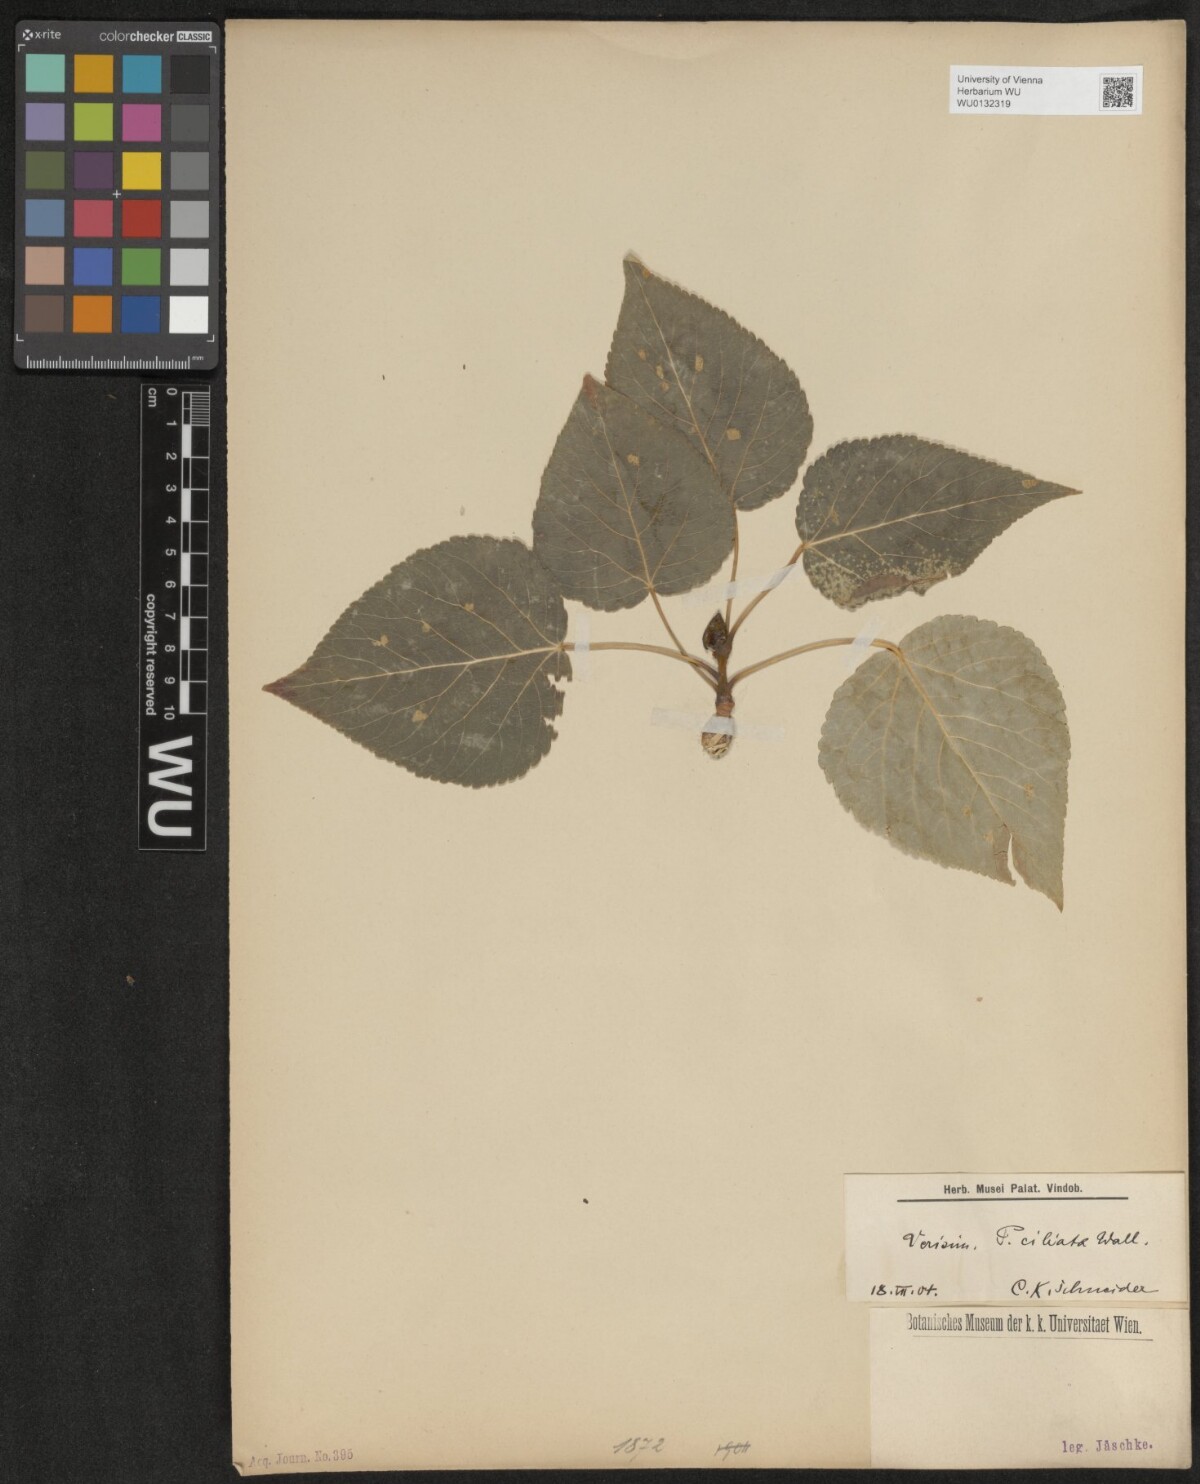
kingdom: Plantae
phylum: Tracheophyta
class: Magnoliopsida
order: Malpighiales
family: Salicaceae
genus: Populus
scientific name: Populus ciliata
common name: Himalayan poplar
